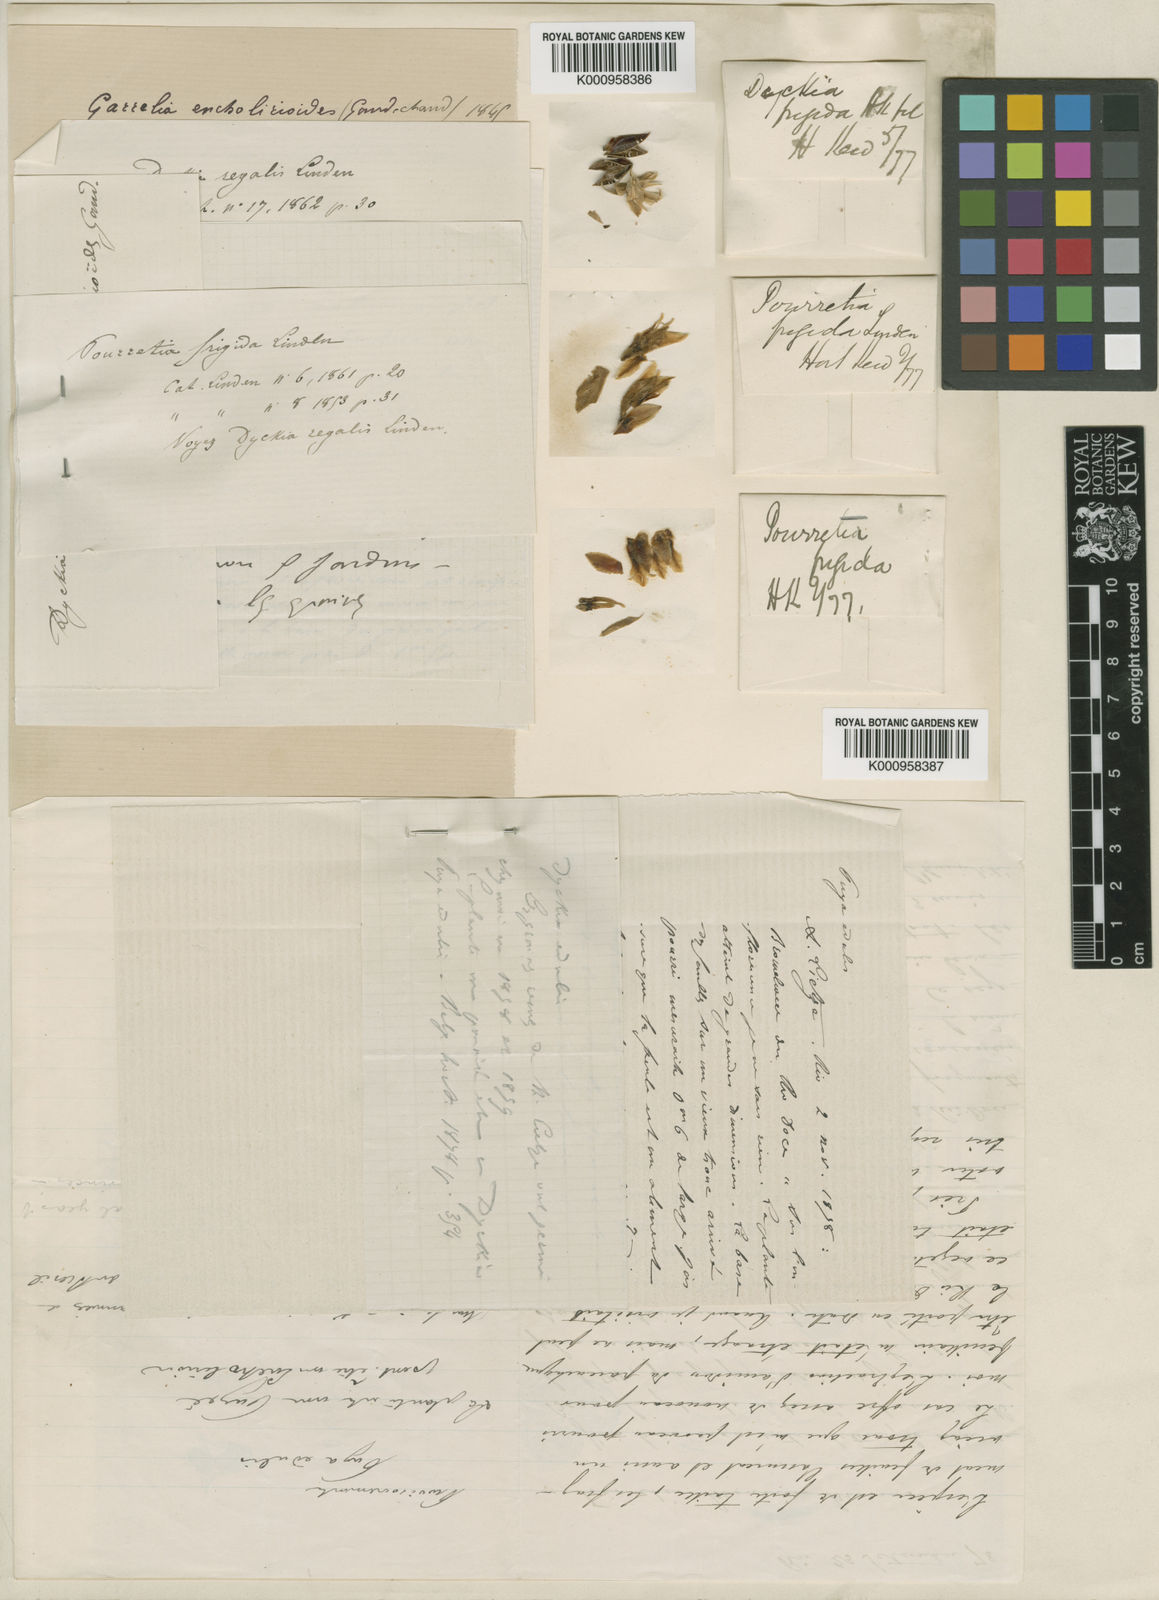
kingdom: Plantae
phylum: Tracheophyta
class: Liliopsida
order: Poales
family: Bromeliaceae
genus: Dyckia
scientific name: Dyckia frigida
